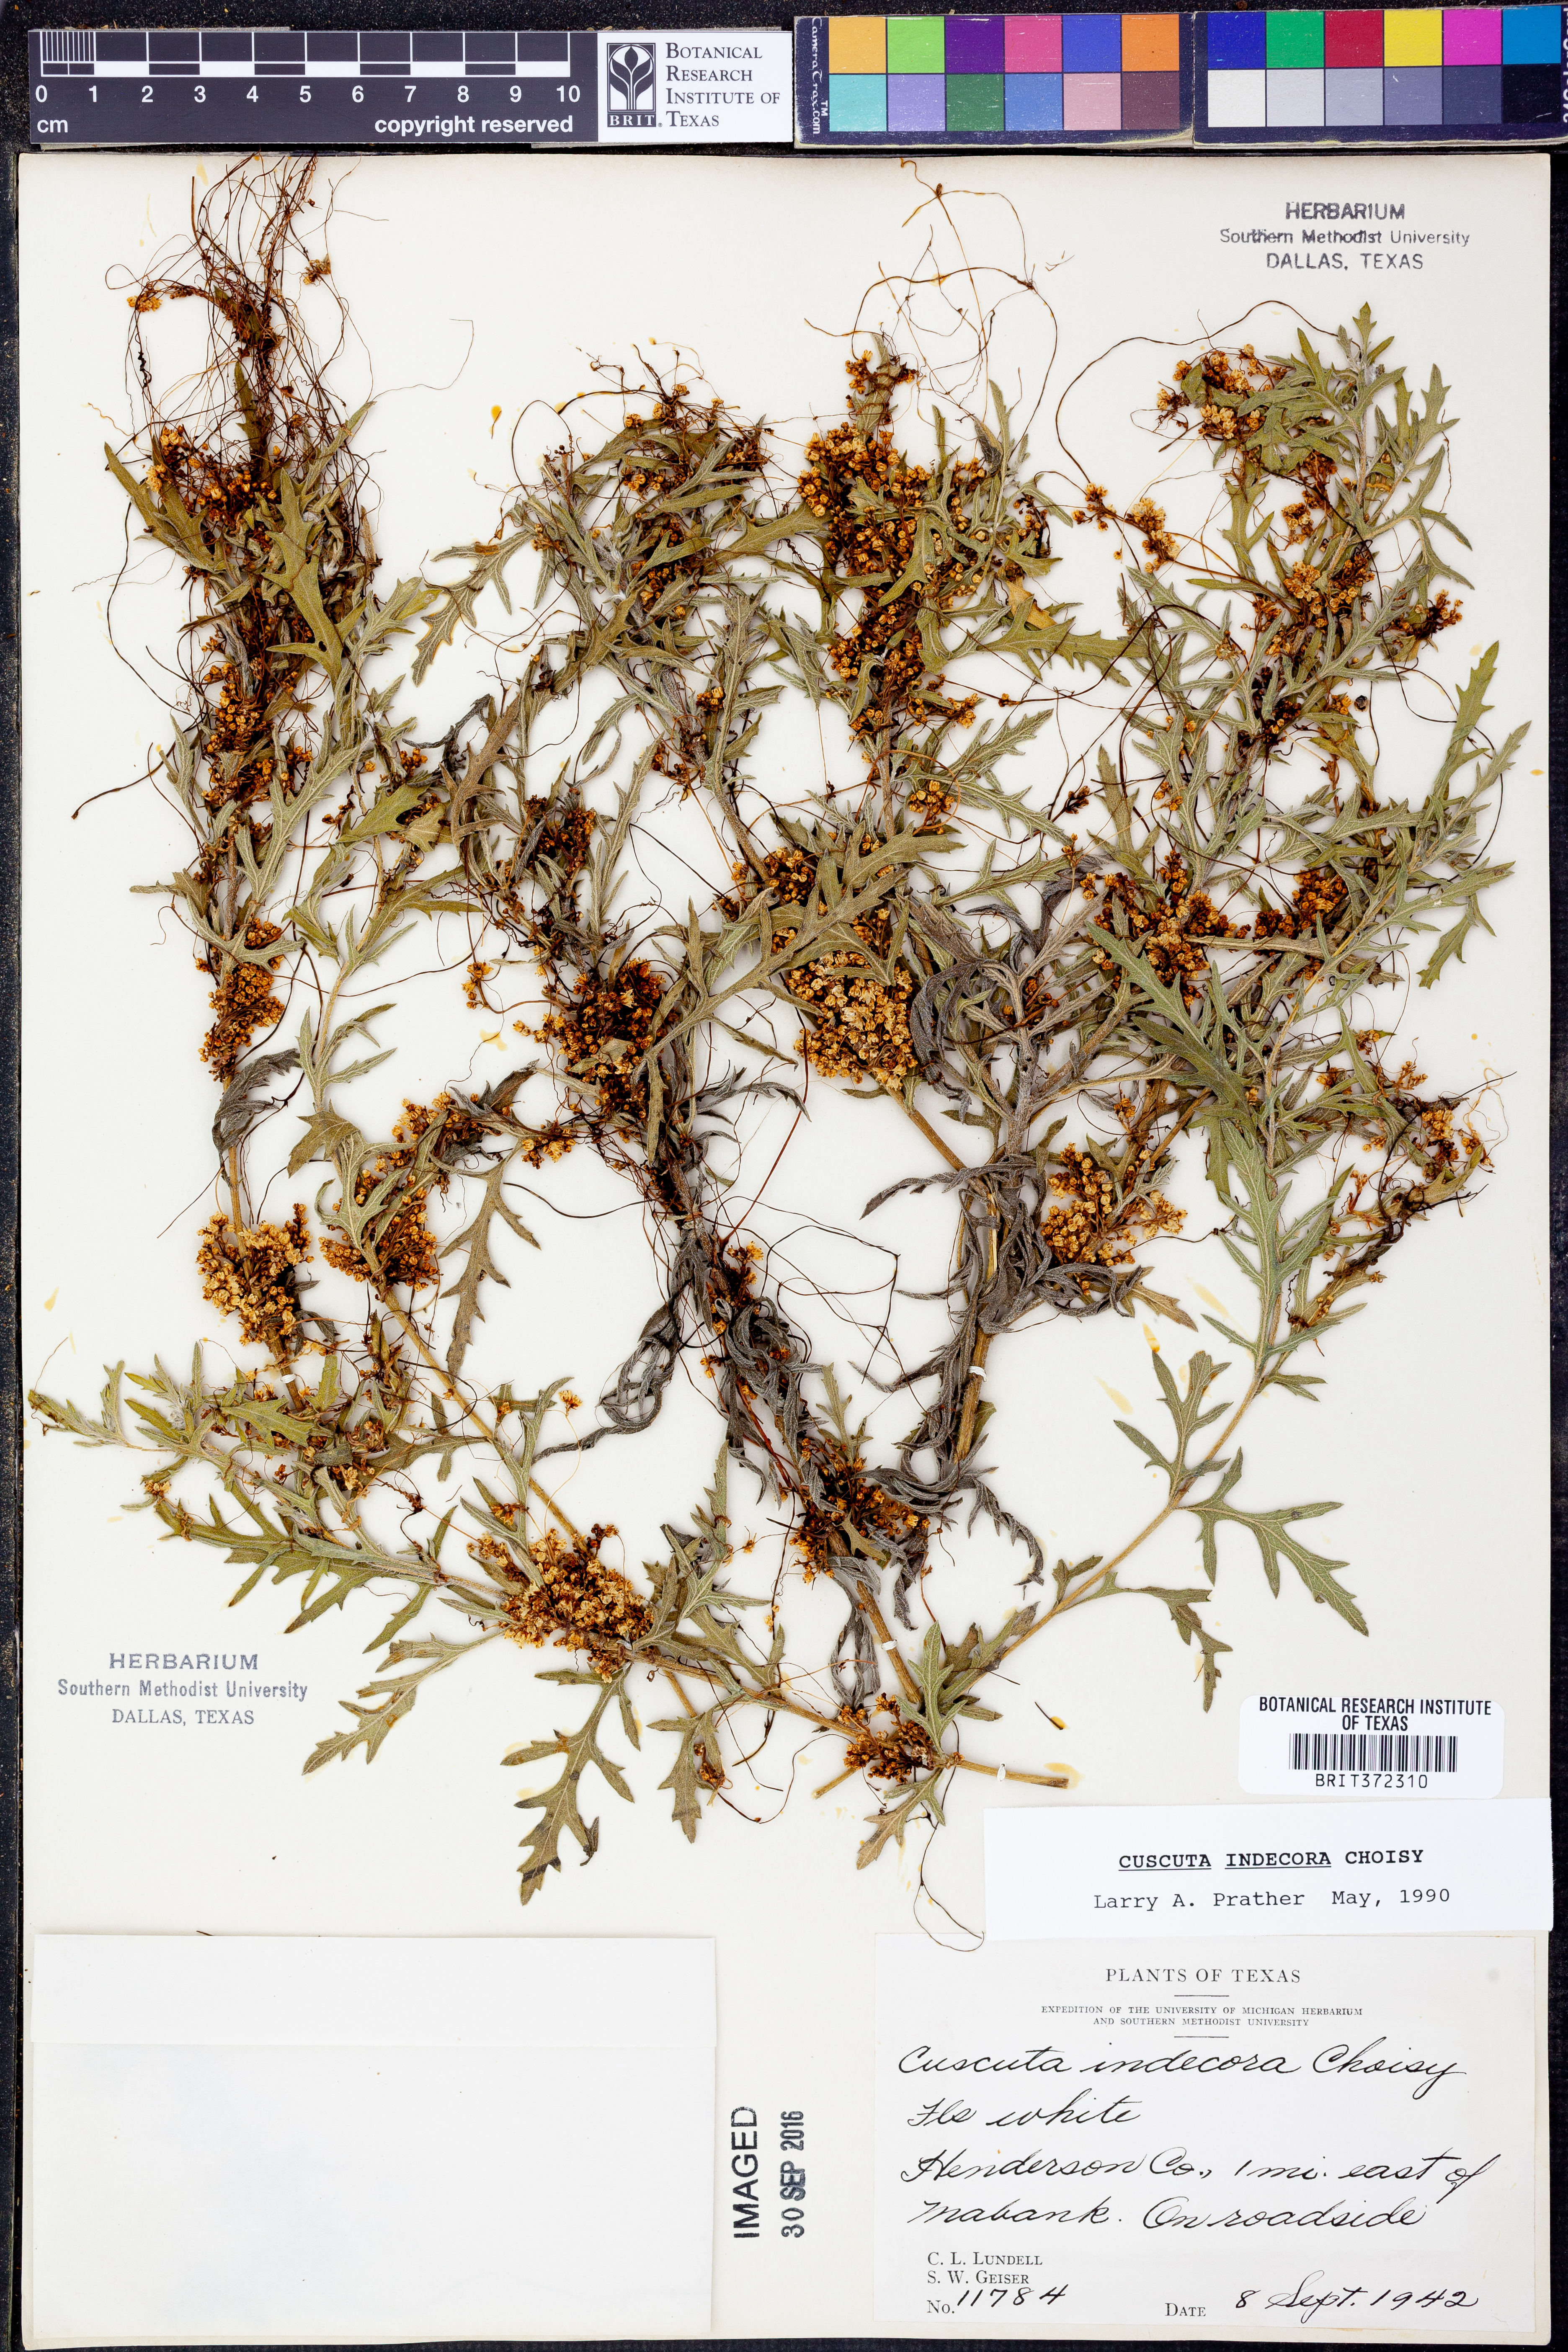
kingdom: Plantae
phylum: Tracheophyta
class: Magnoliopsida
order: Solanales
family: Convolvulaceae
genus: Cuscuta
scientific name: Cuscuta indecora
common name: Large-seed dodder
